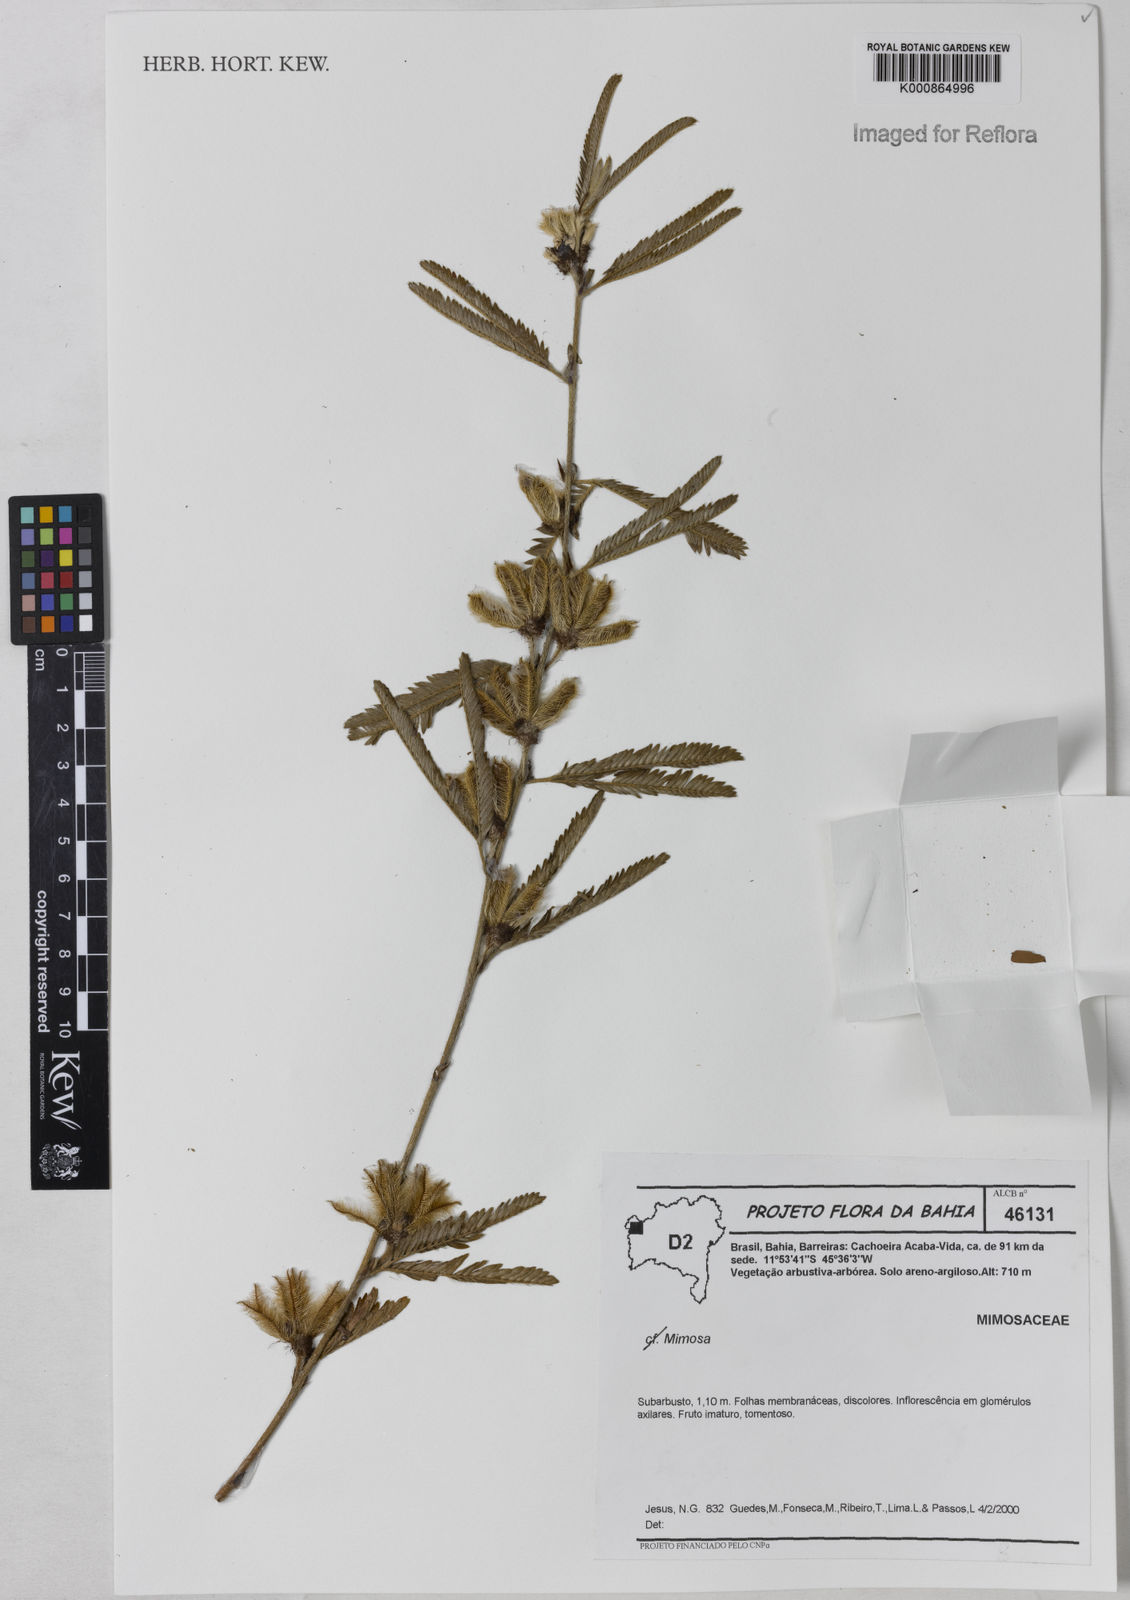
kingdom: Plantae
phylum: Tracheophyta
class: Magnoliopsida
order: Fabales
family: Fabaceae
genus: Mimosa
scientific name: Mimosa
